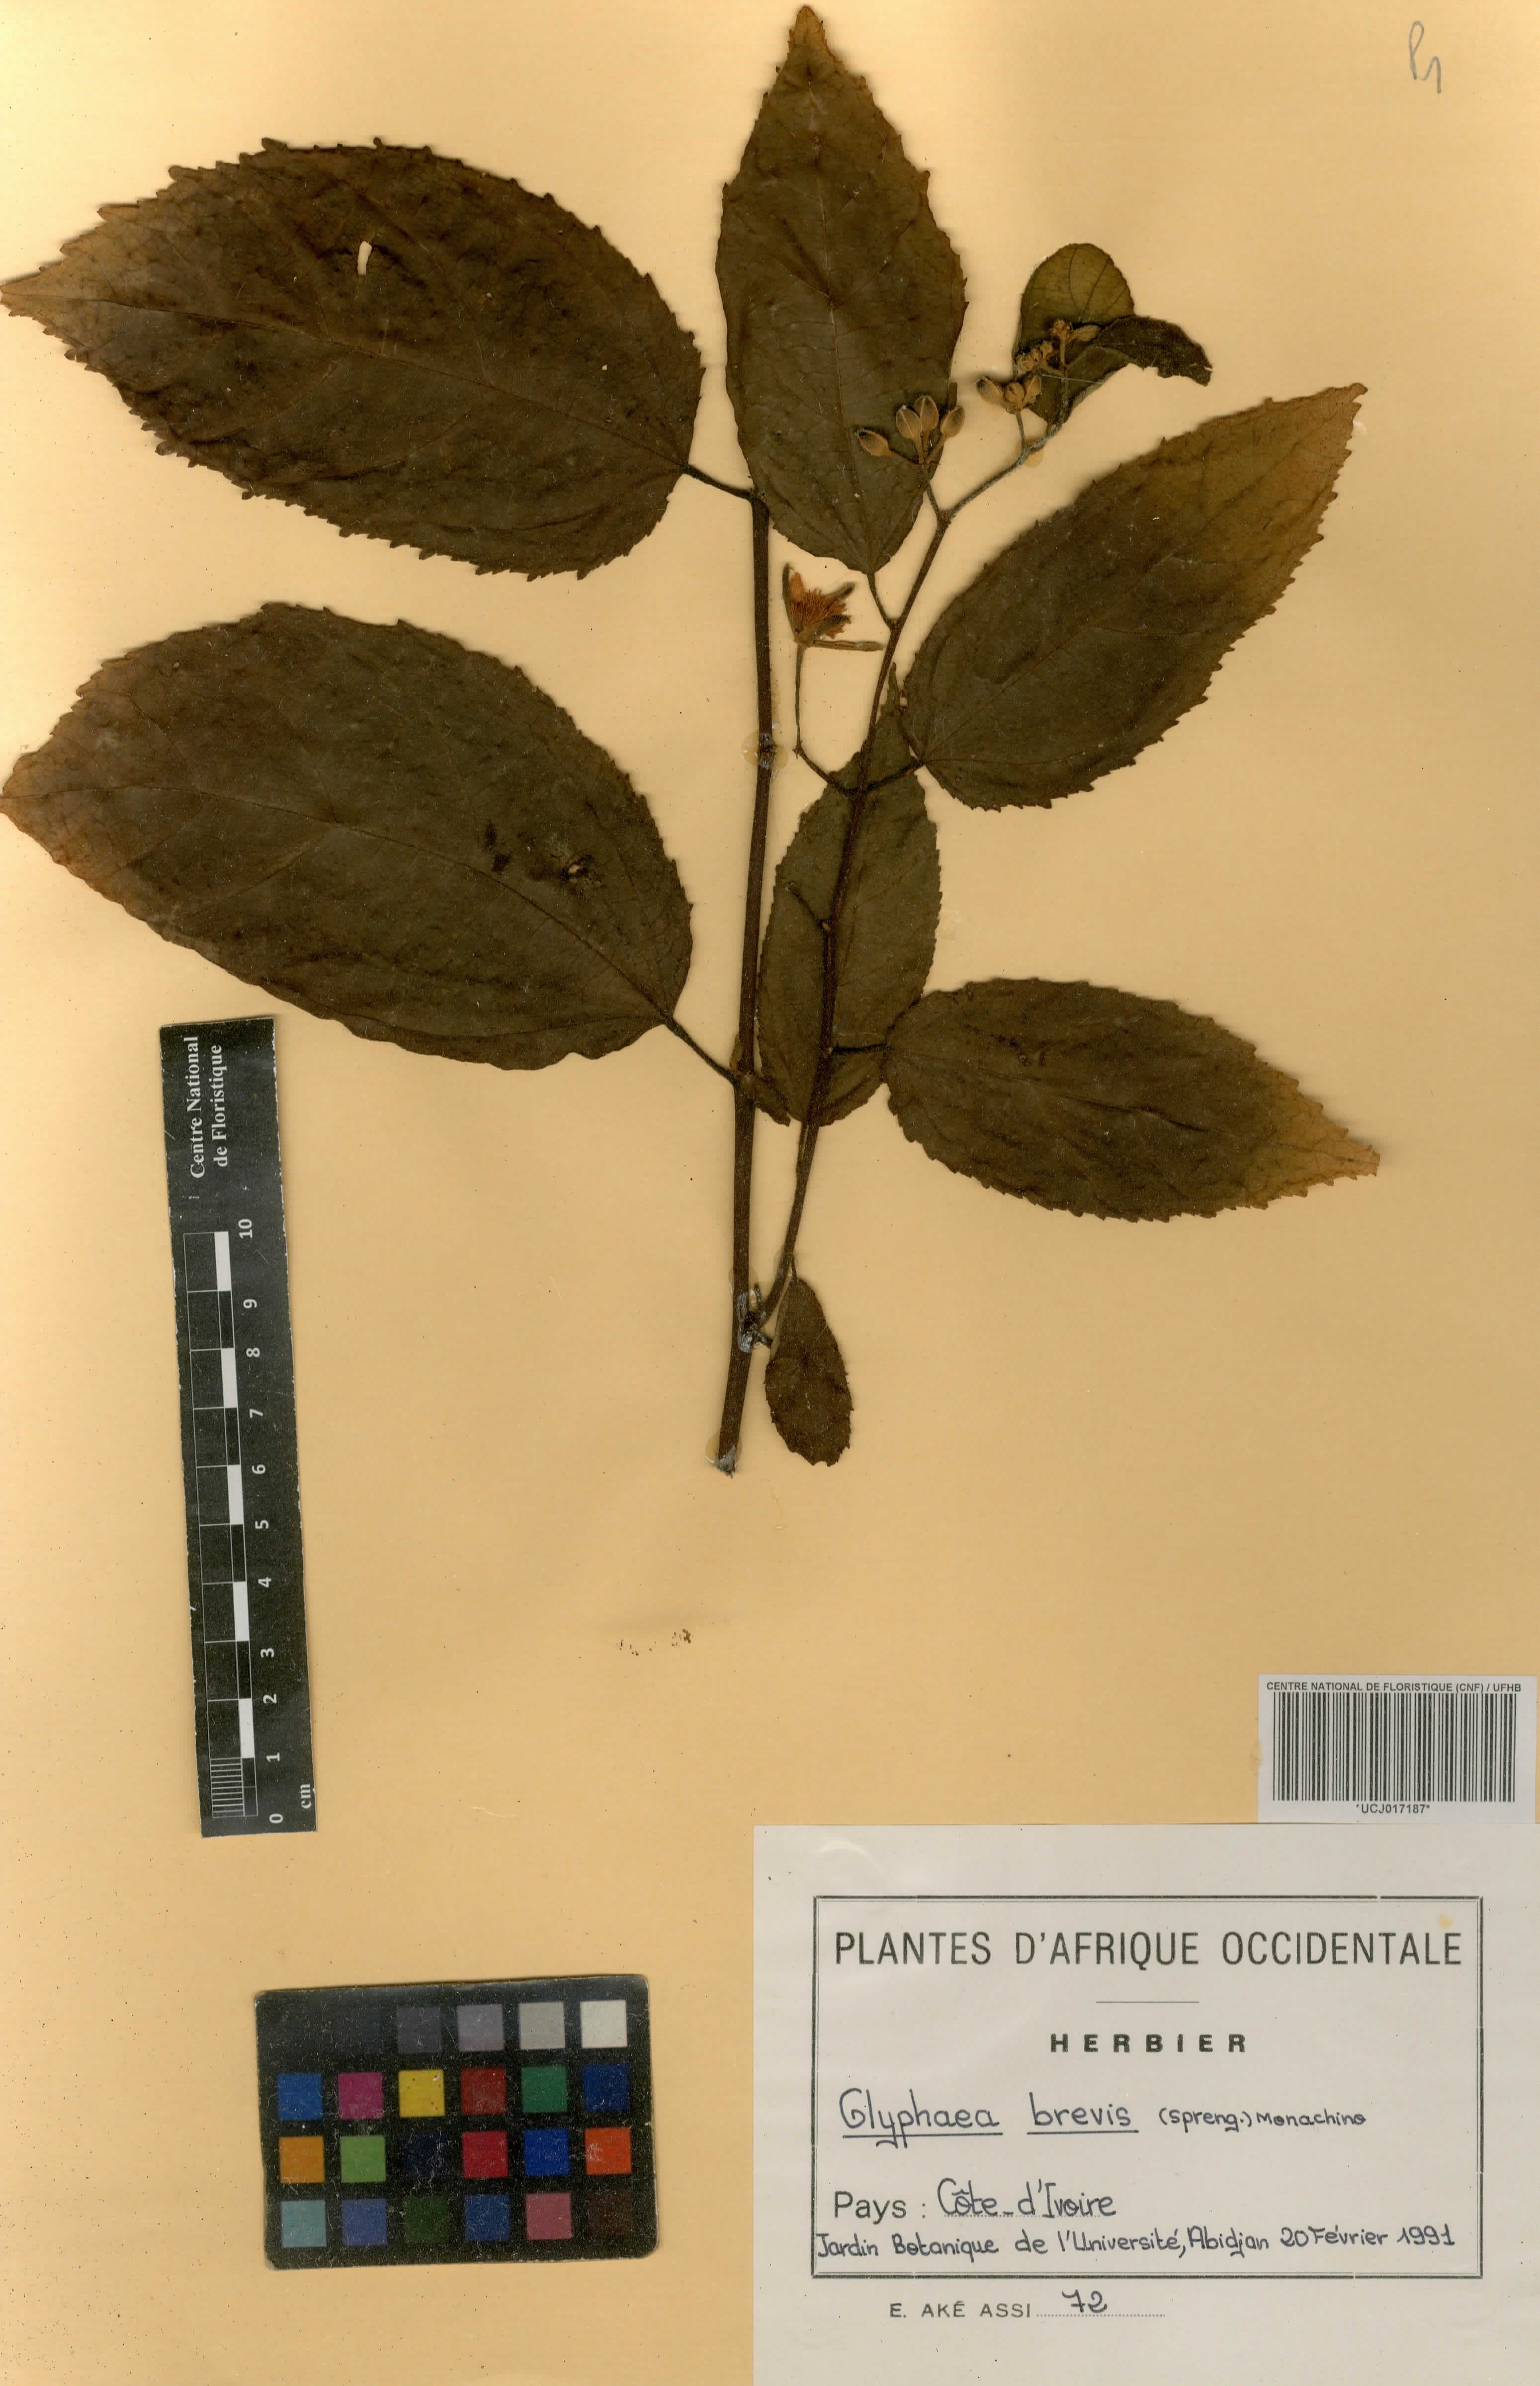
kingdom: Plantae
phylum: Tracheophyta
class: Magnoliopsida
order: Malvales
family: Malvaceae
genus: Glyphaea
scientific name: Glyphaea brevis
